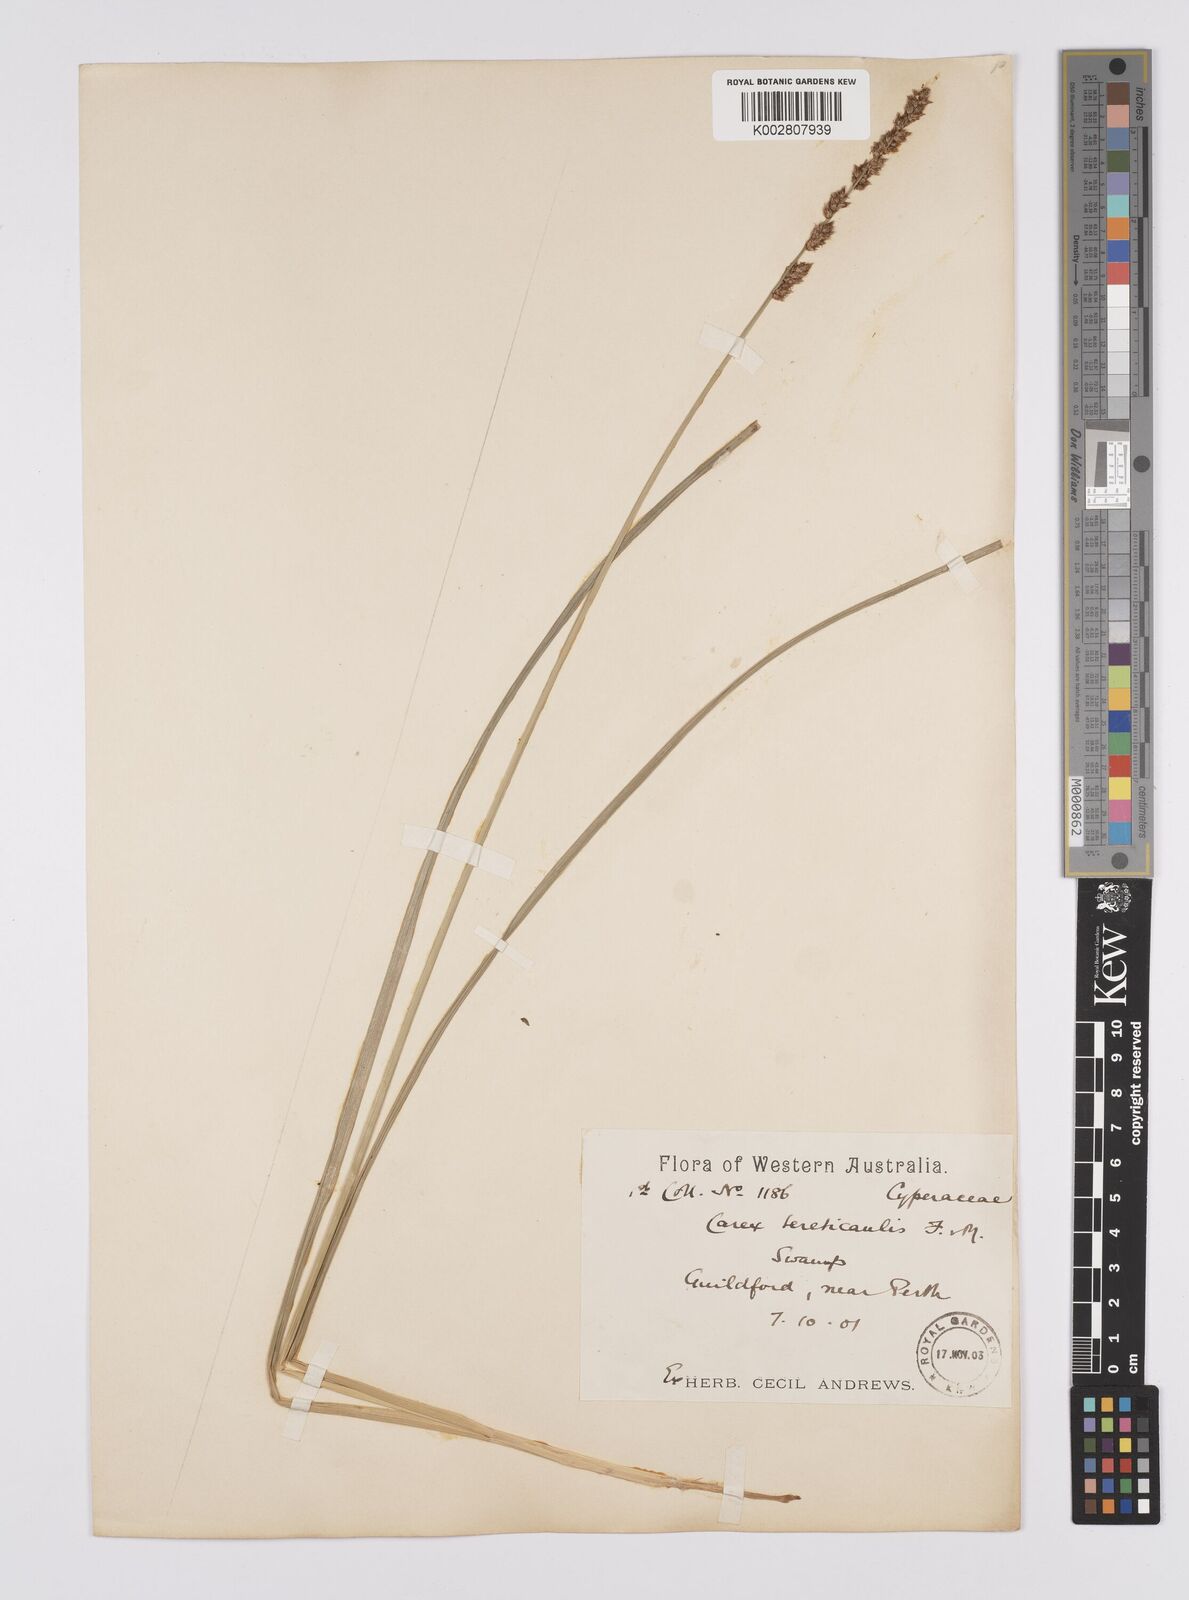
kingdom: Plantae
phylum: Tracheophyta
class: Liliopsida
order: Poales
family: Cyperaceae
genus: Carex
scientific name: Carex tereticaulis
